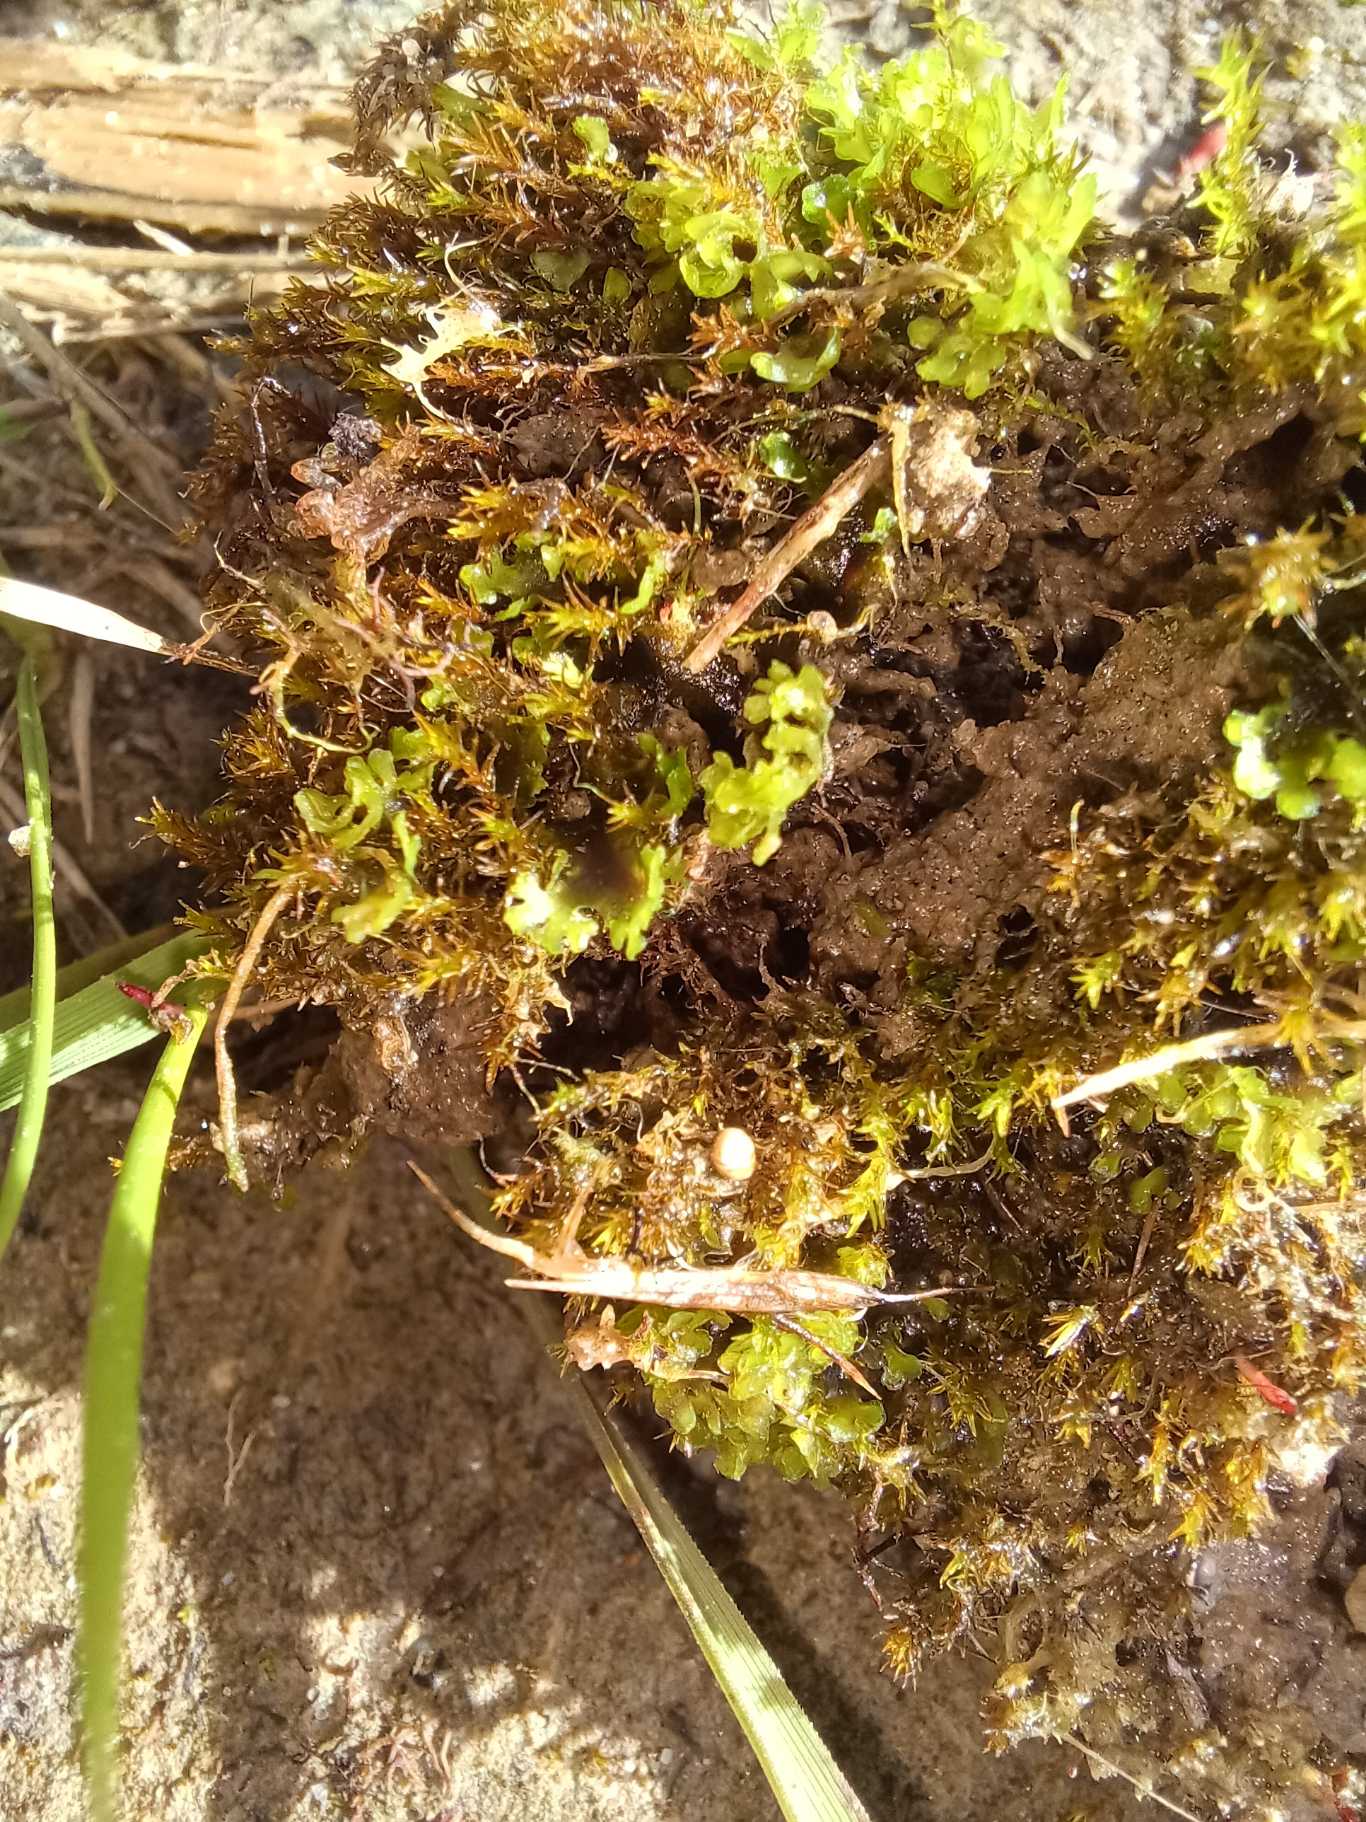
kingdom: Plantae
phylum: Marchantiophyta
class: Jungermanniopsida
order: Pelliales
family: Pelliaceae
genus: Apopellia
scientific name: Apopellia endiviifolia
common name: Fliget ribbeløv
